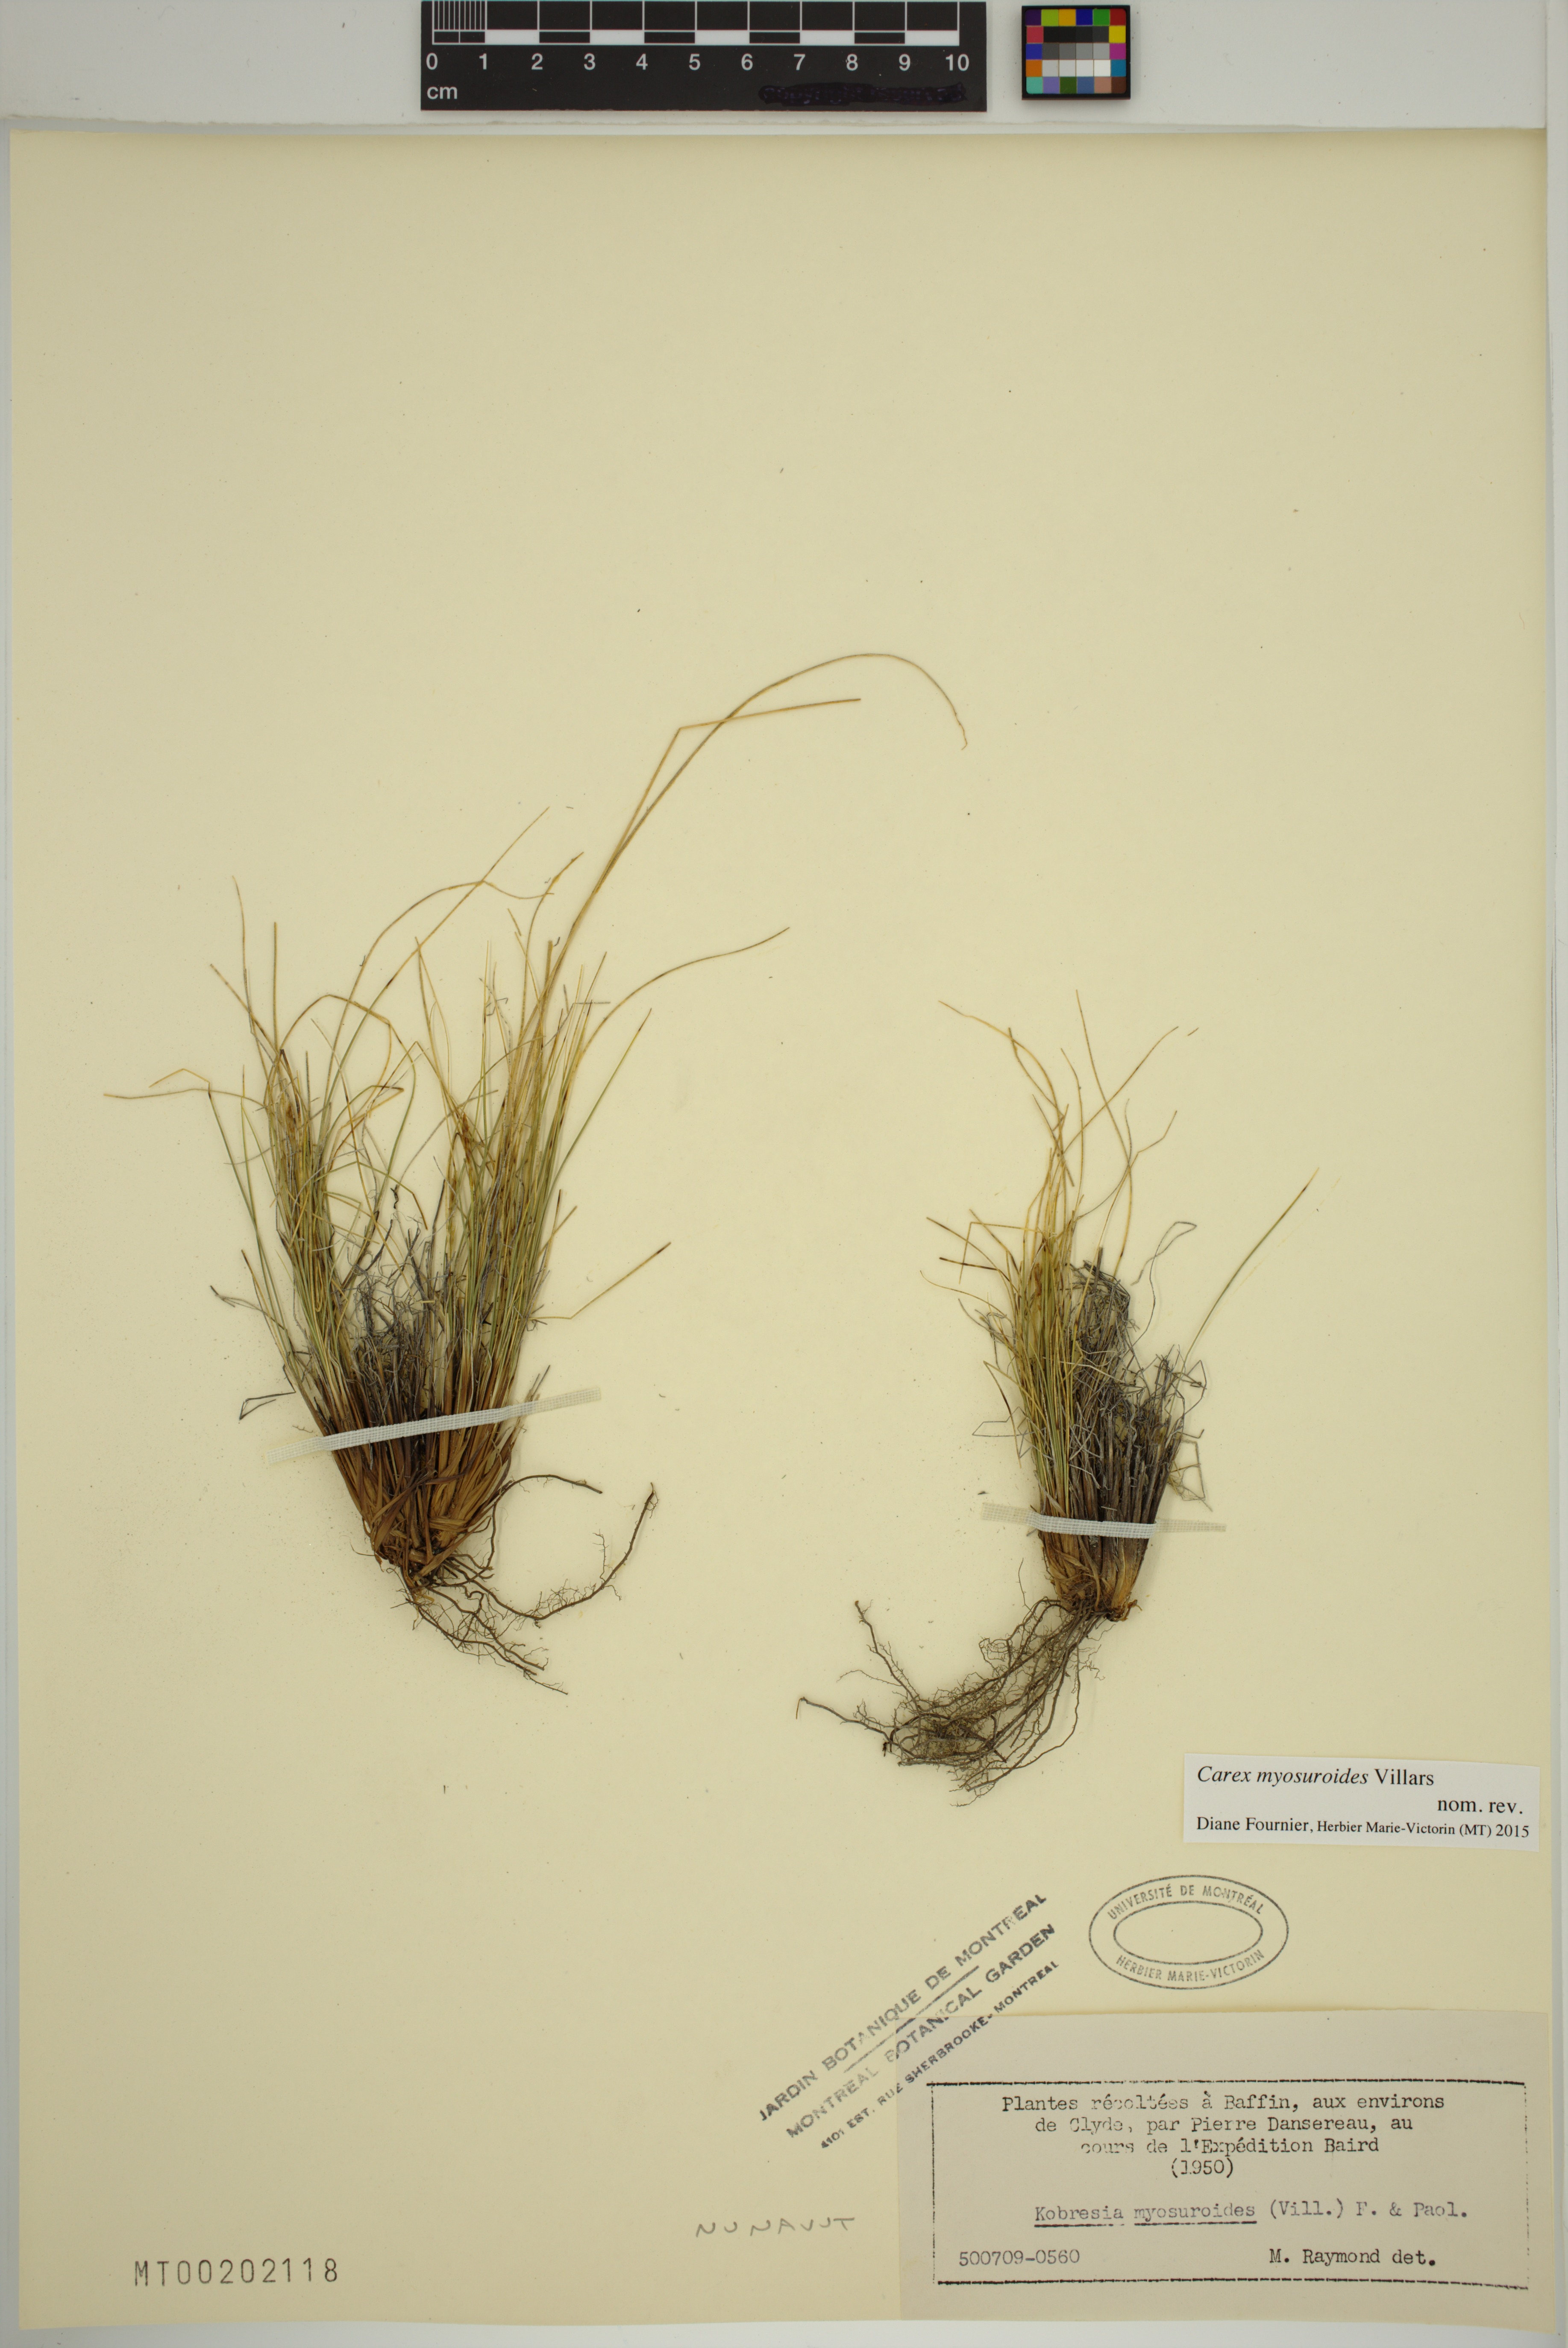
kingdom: Plantae
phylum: Tracheophyta
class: Liliopsida
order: Poales
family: Cyperaceae
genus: Carex
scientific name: Carex myosuroides
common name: Bellard's bog sedge
